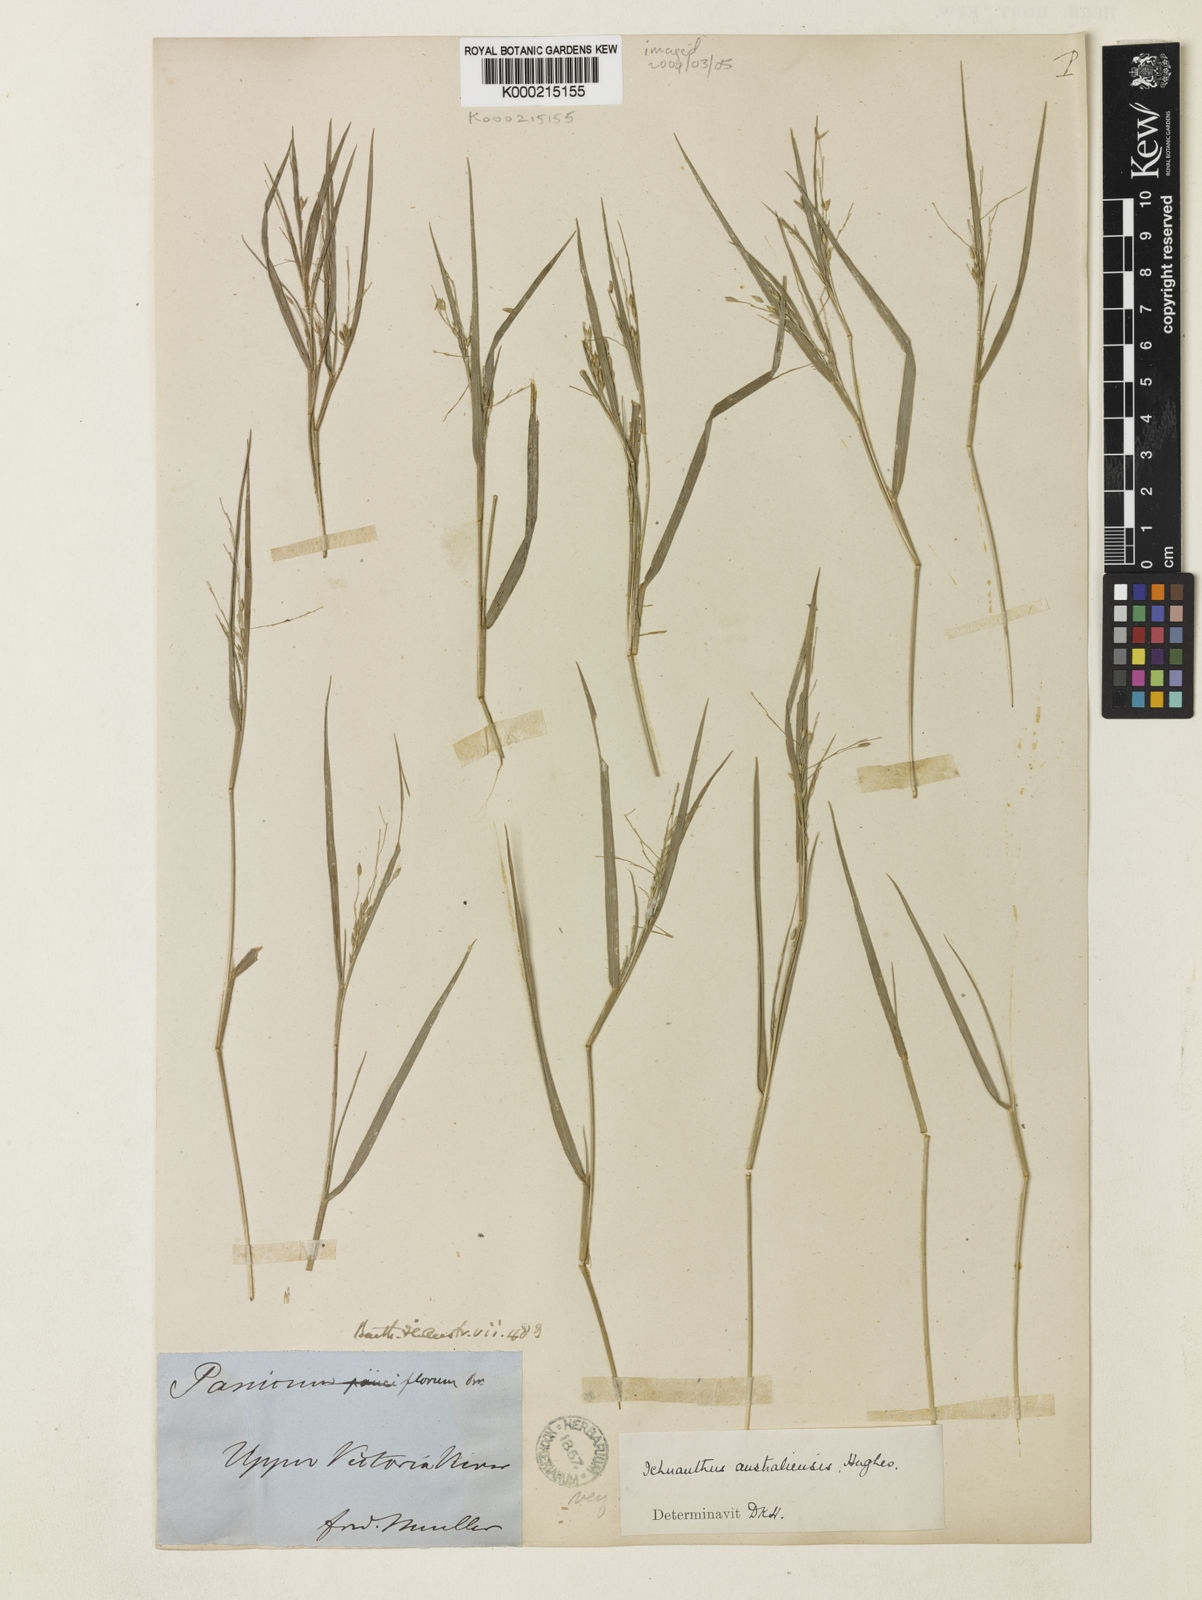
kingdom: Plantae
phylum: Tracheophyta
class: Liliopsida
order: Poales
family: Poaceae
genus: Panicum
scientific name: Panicum australiense
